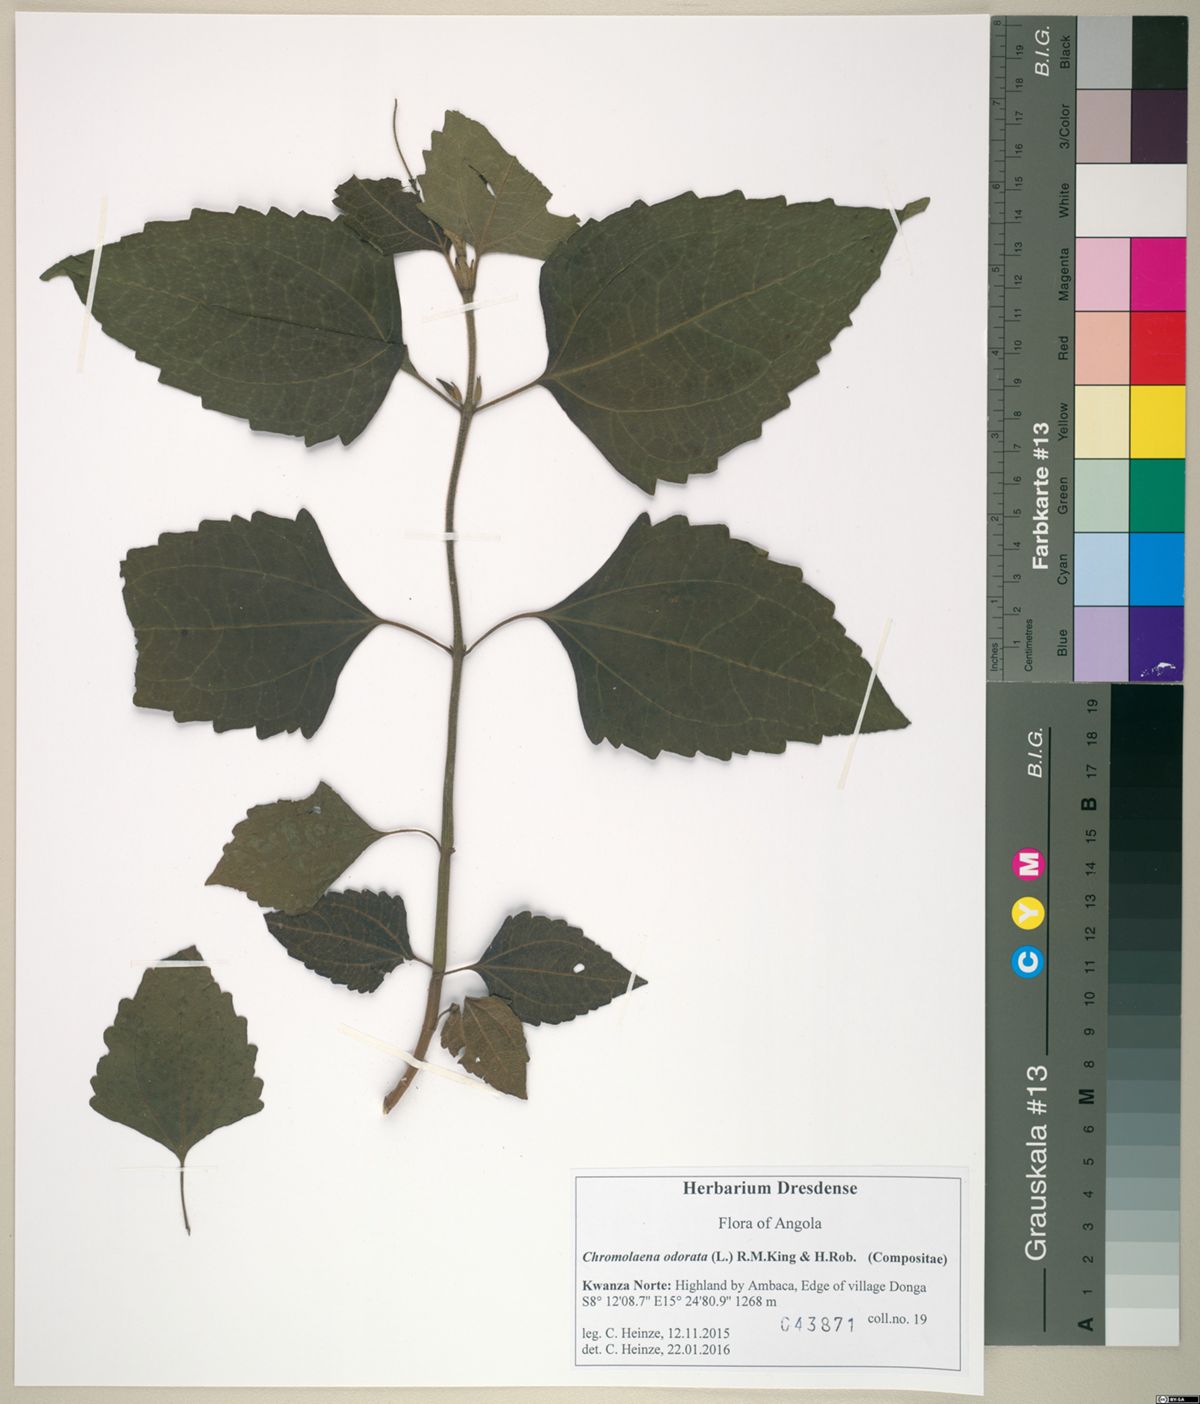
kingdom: Plantae
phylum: Tracheophyta
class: Magnoliopsida
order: Asterales
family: Asteraceae
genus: Chromolaena
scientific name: Chromolaena odorata
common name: Siamweed
